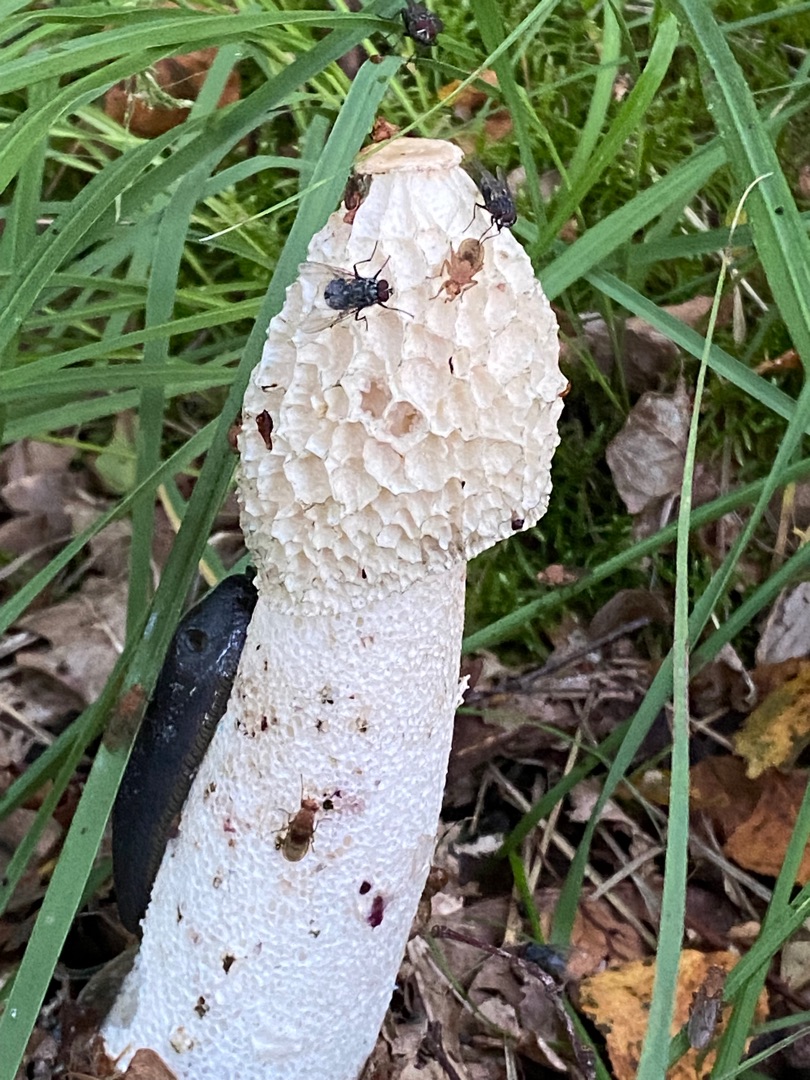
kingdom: Fungi
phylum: Basidiomycota
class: Agaricomycetes
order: Phallales
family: Phallaceae
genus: Phallus
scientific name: Phallus impudicus
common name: Almindelig stinksvamp
